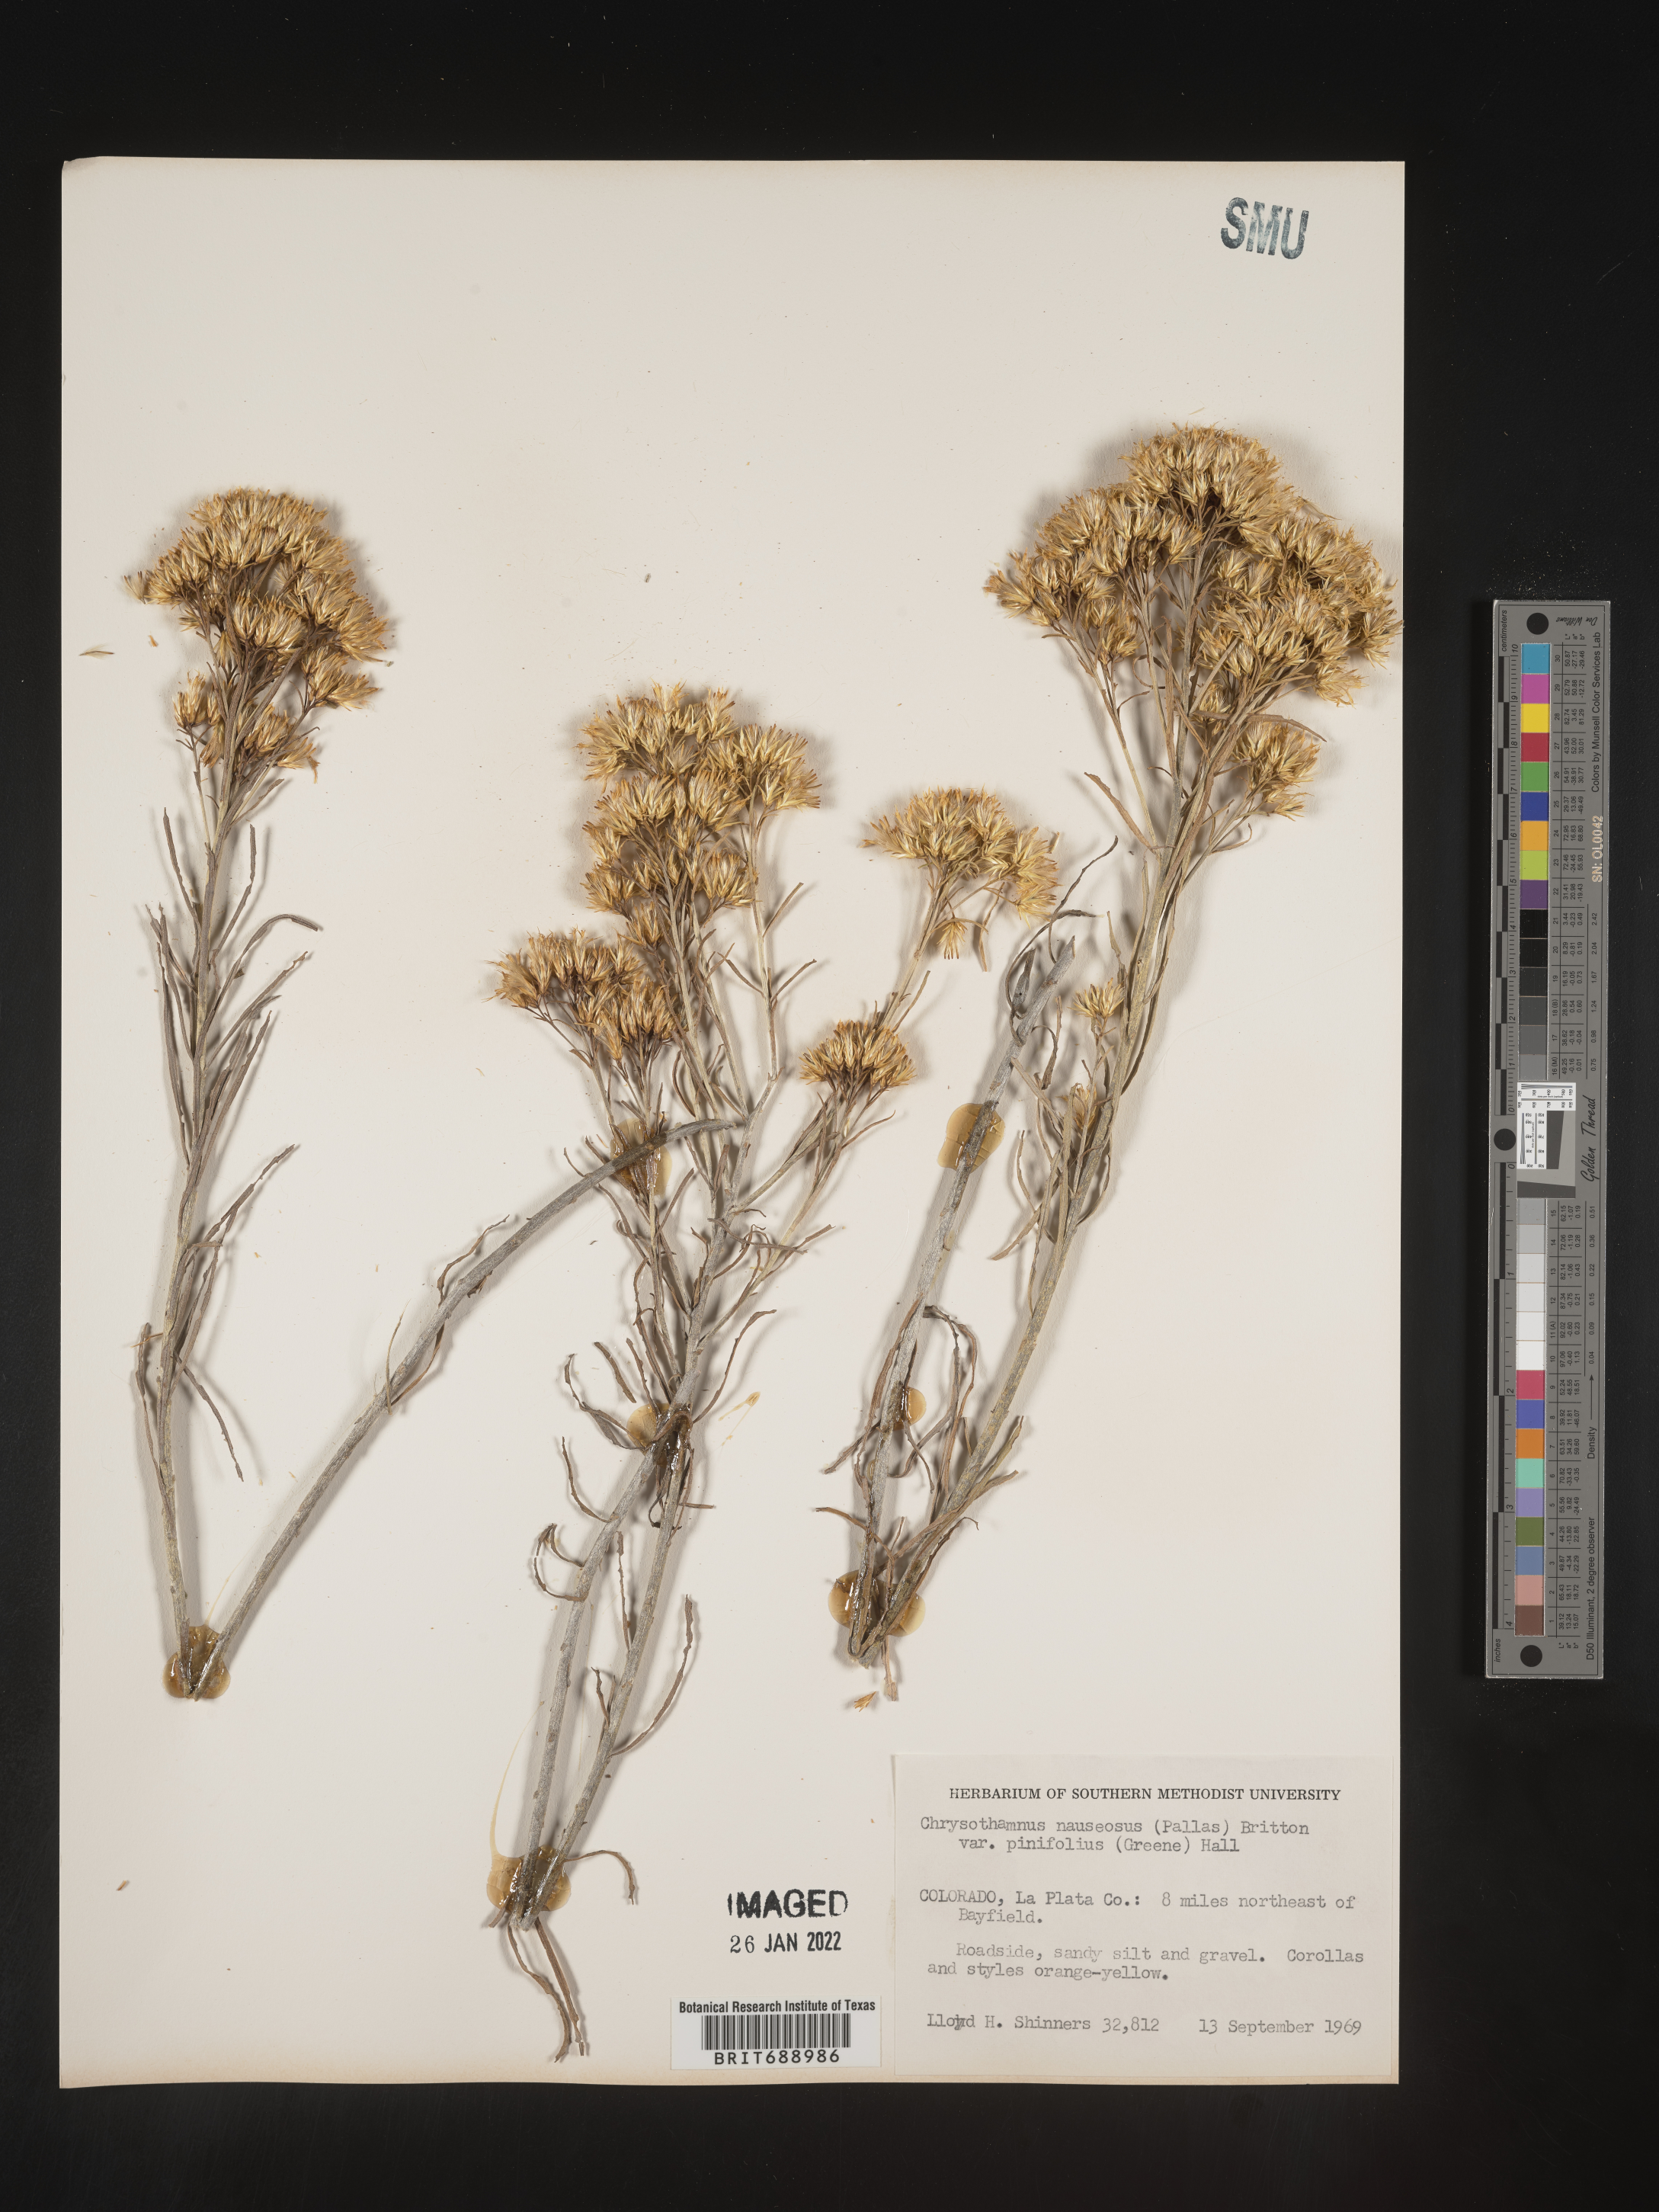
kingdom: Plantae
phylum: Tracheophyta
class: Magnoliopsida
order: Asterales
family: Asteraceae
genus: Ericameria
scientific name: Ericameria nauseosa
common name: Rubber rabbitbrush
